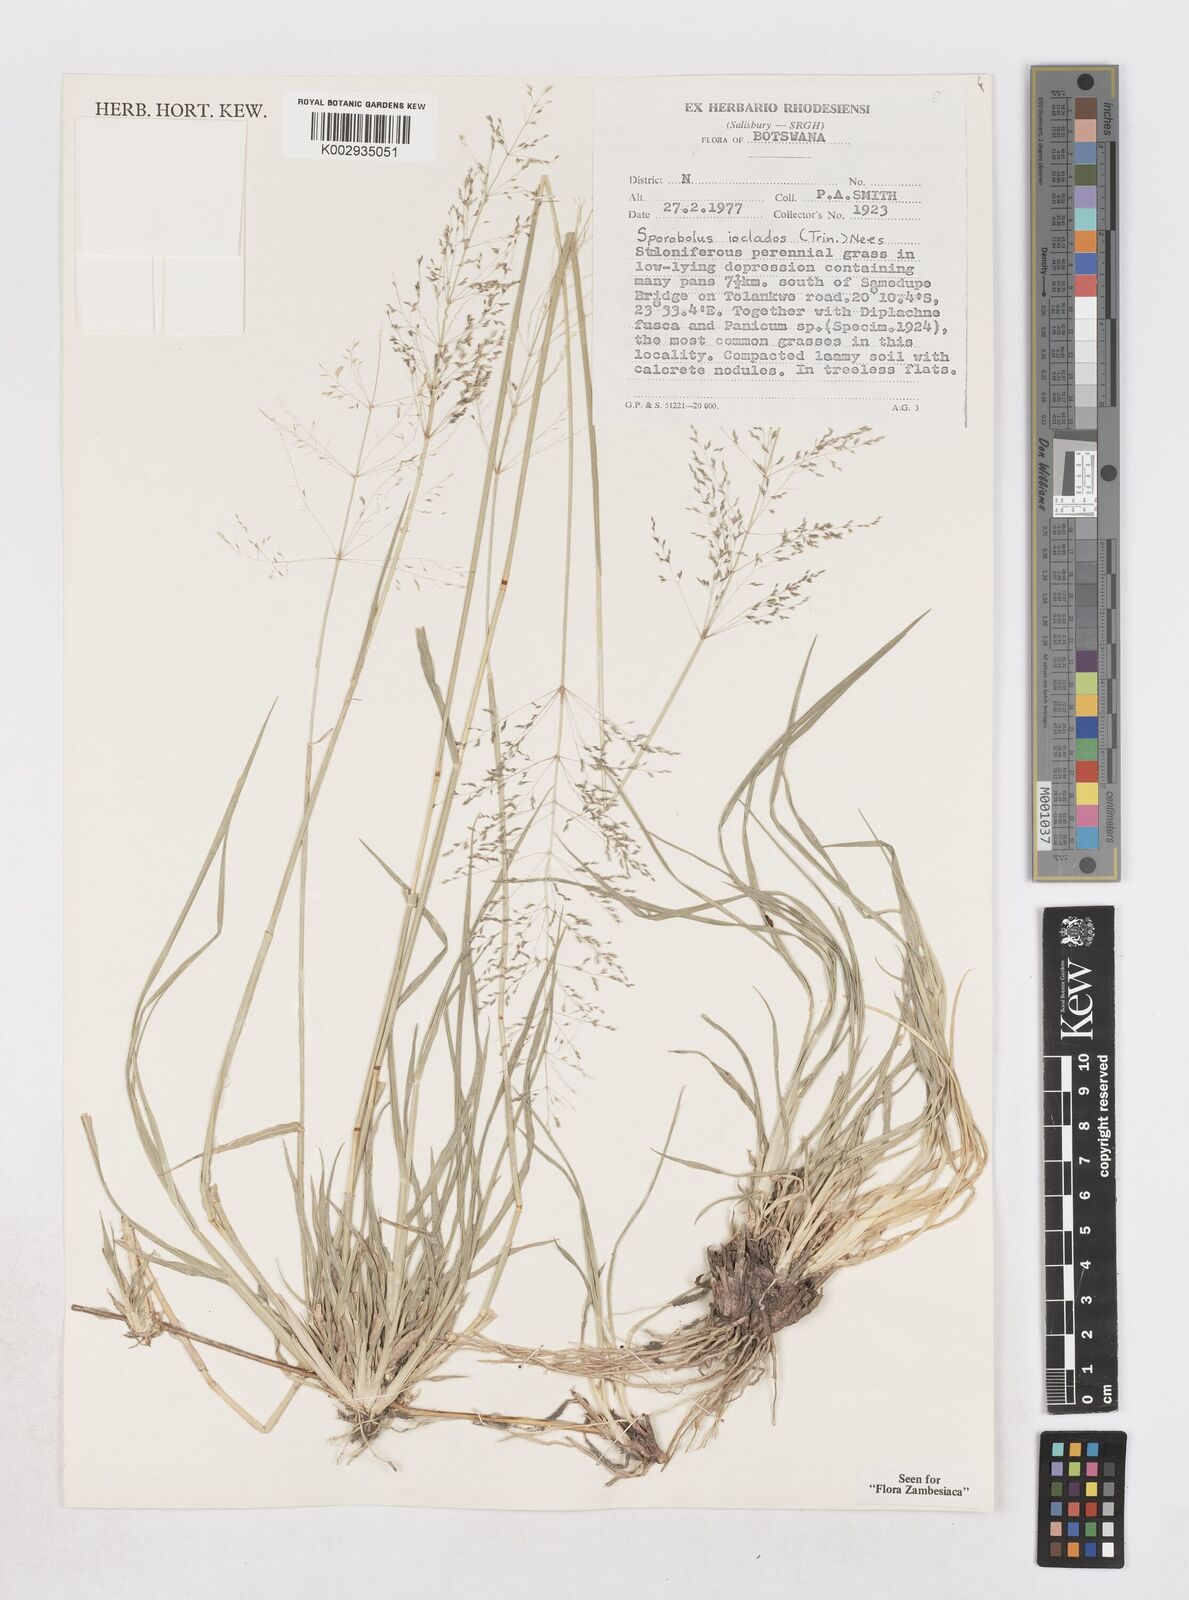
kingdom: Plantae
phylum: Tracheophyta
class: Liliopsida
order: Poales
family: Poaceae
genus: Sporobolus
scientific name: Sporobolus ioclados
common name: Pan dropseed
